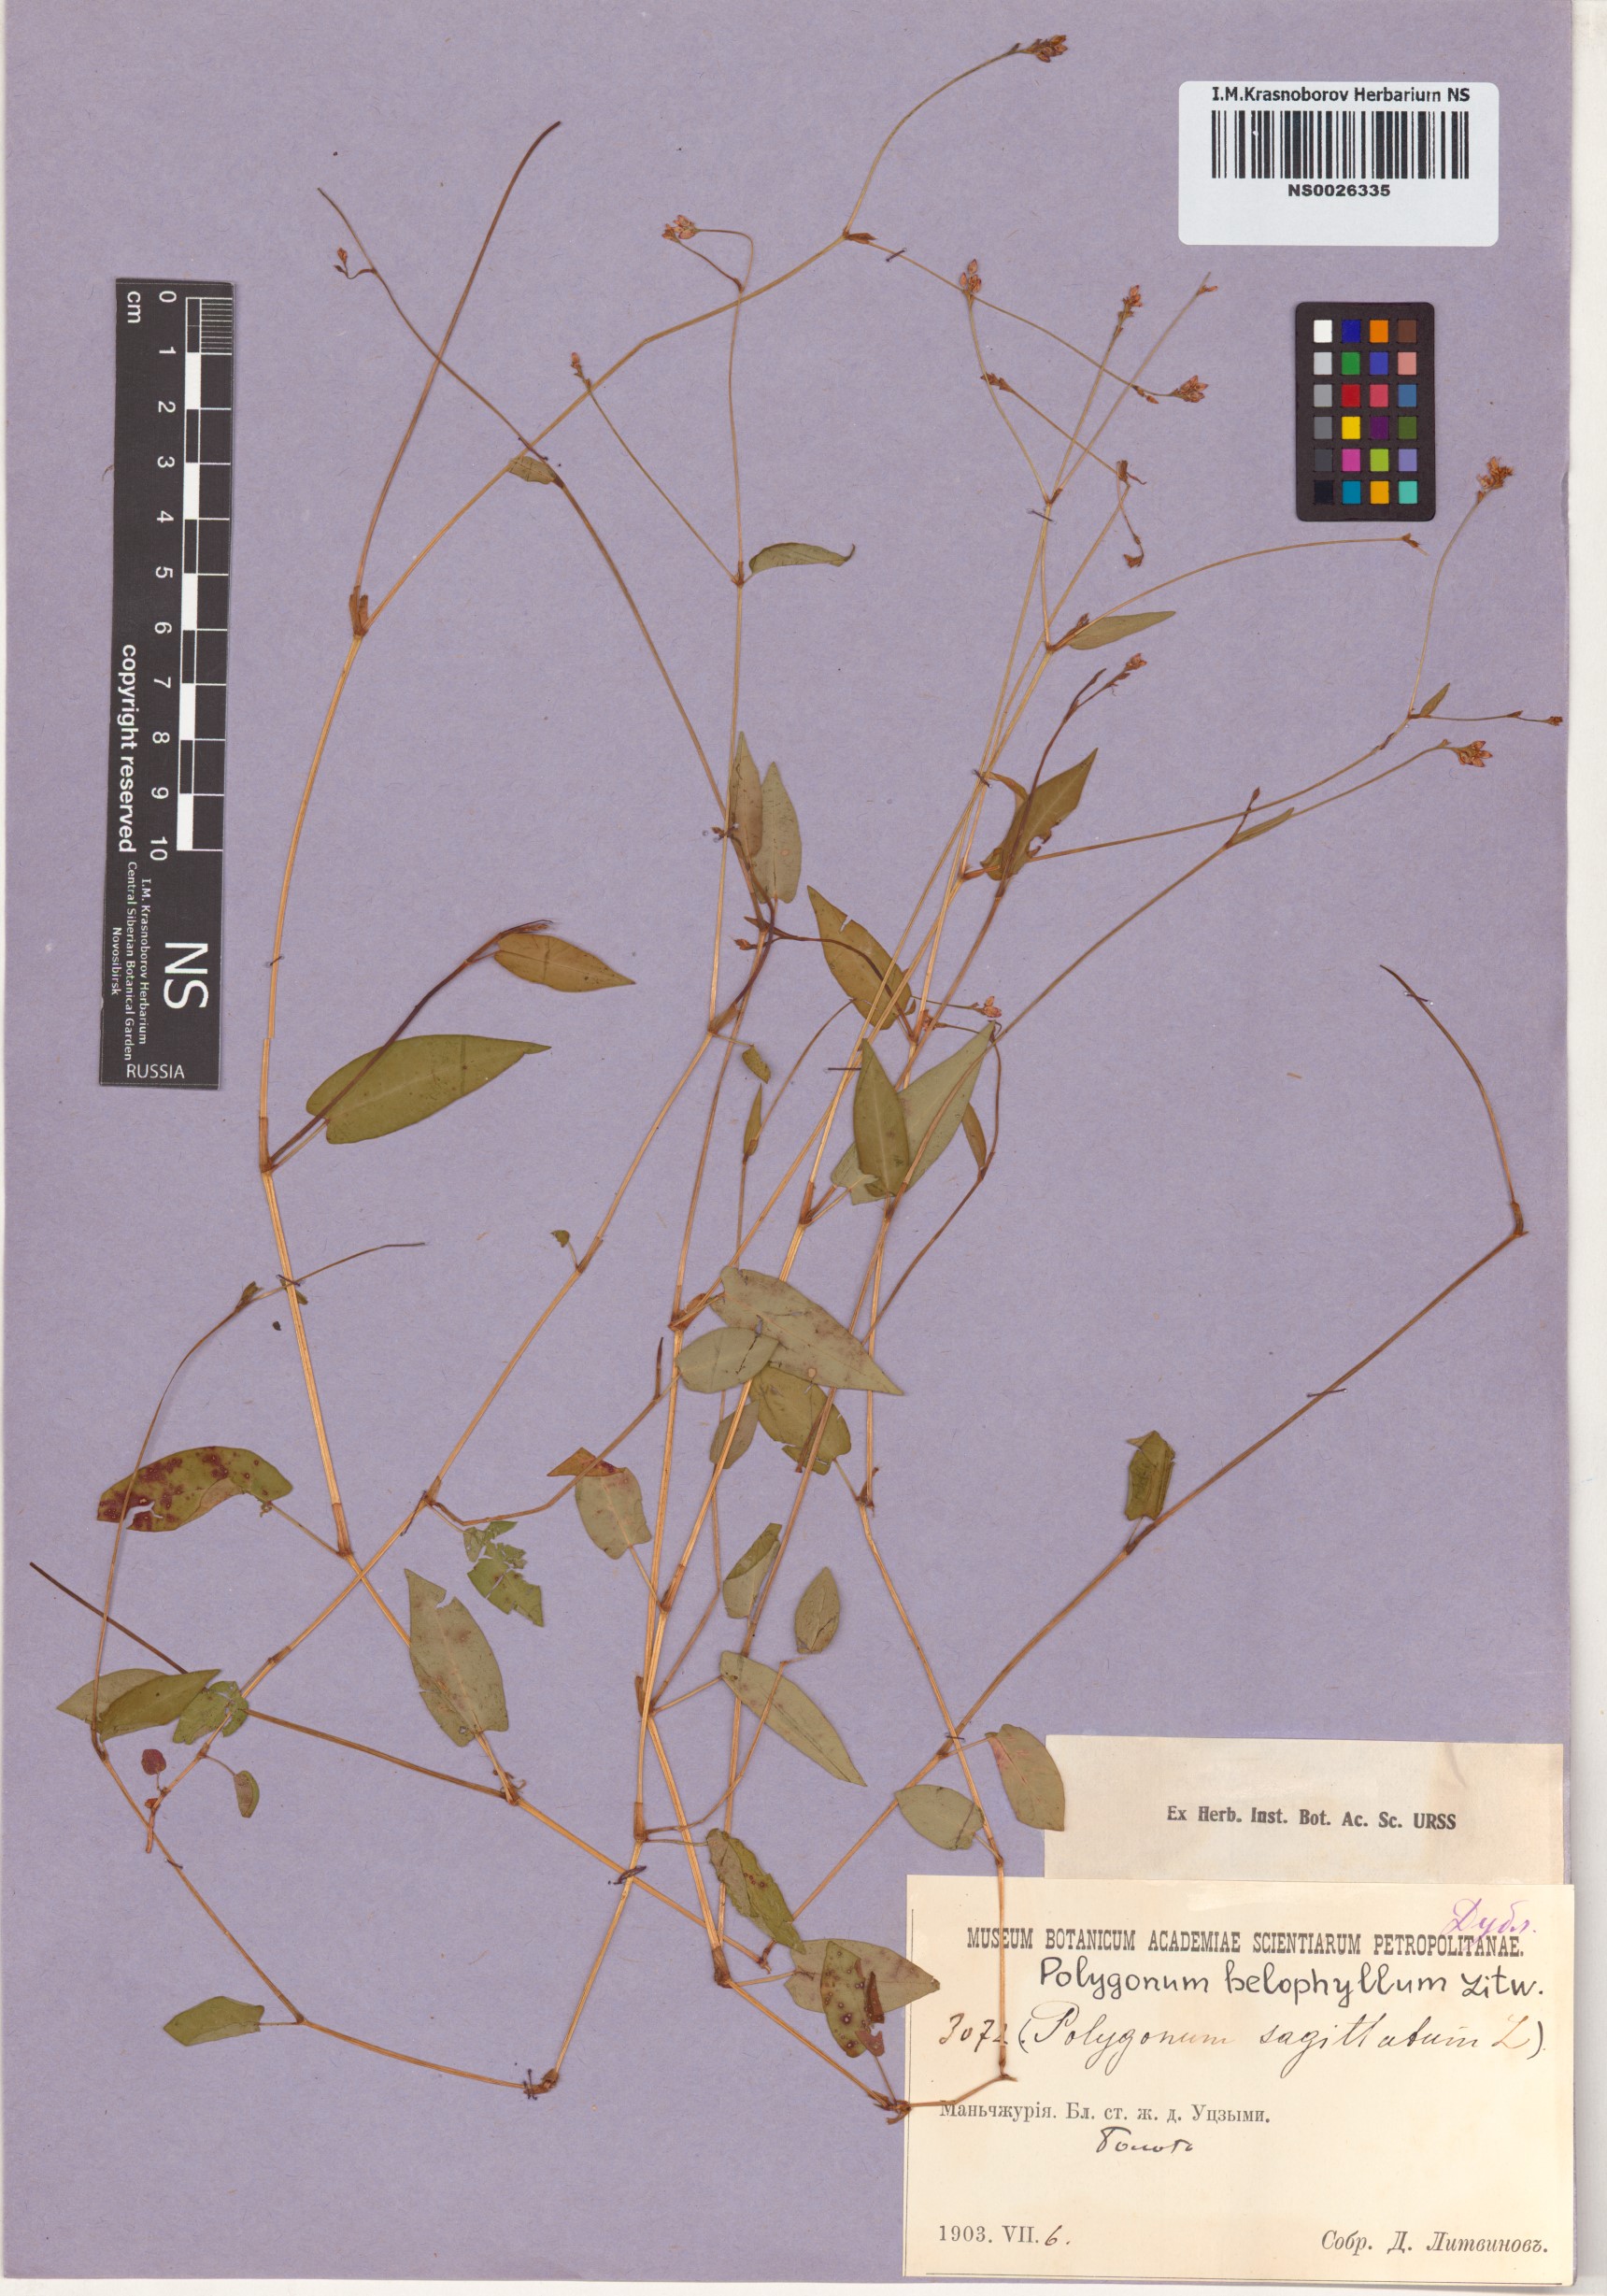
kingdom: Plantae
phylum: Tracheophyta
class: Magnoliopsida
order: Caryophyllales
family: Polygonaceae
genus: Persicaria
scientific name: Persicaria sagittata
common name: American tearthumb
